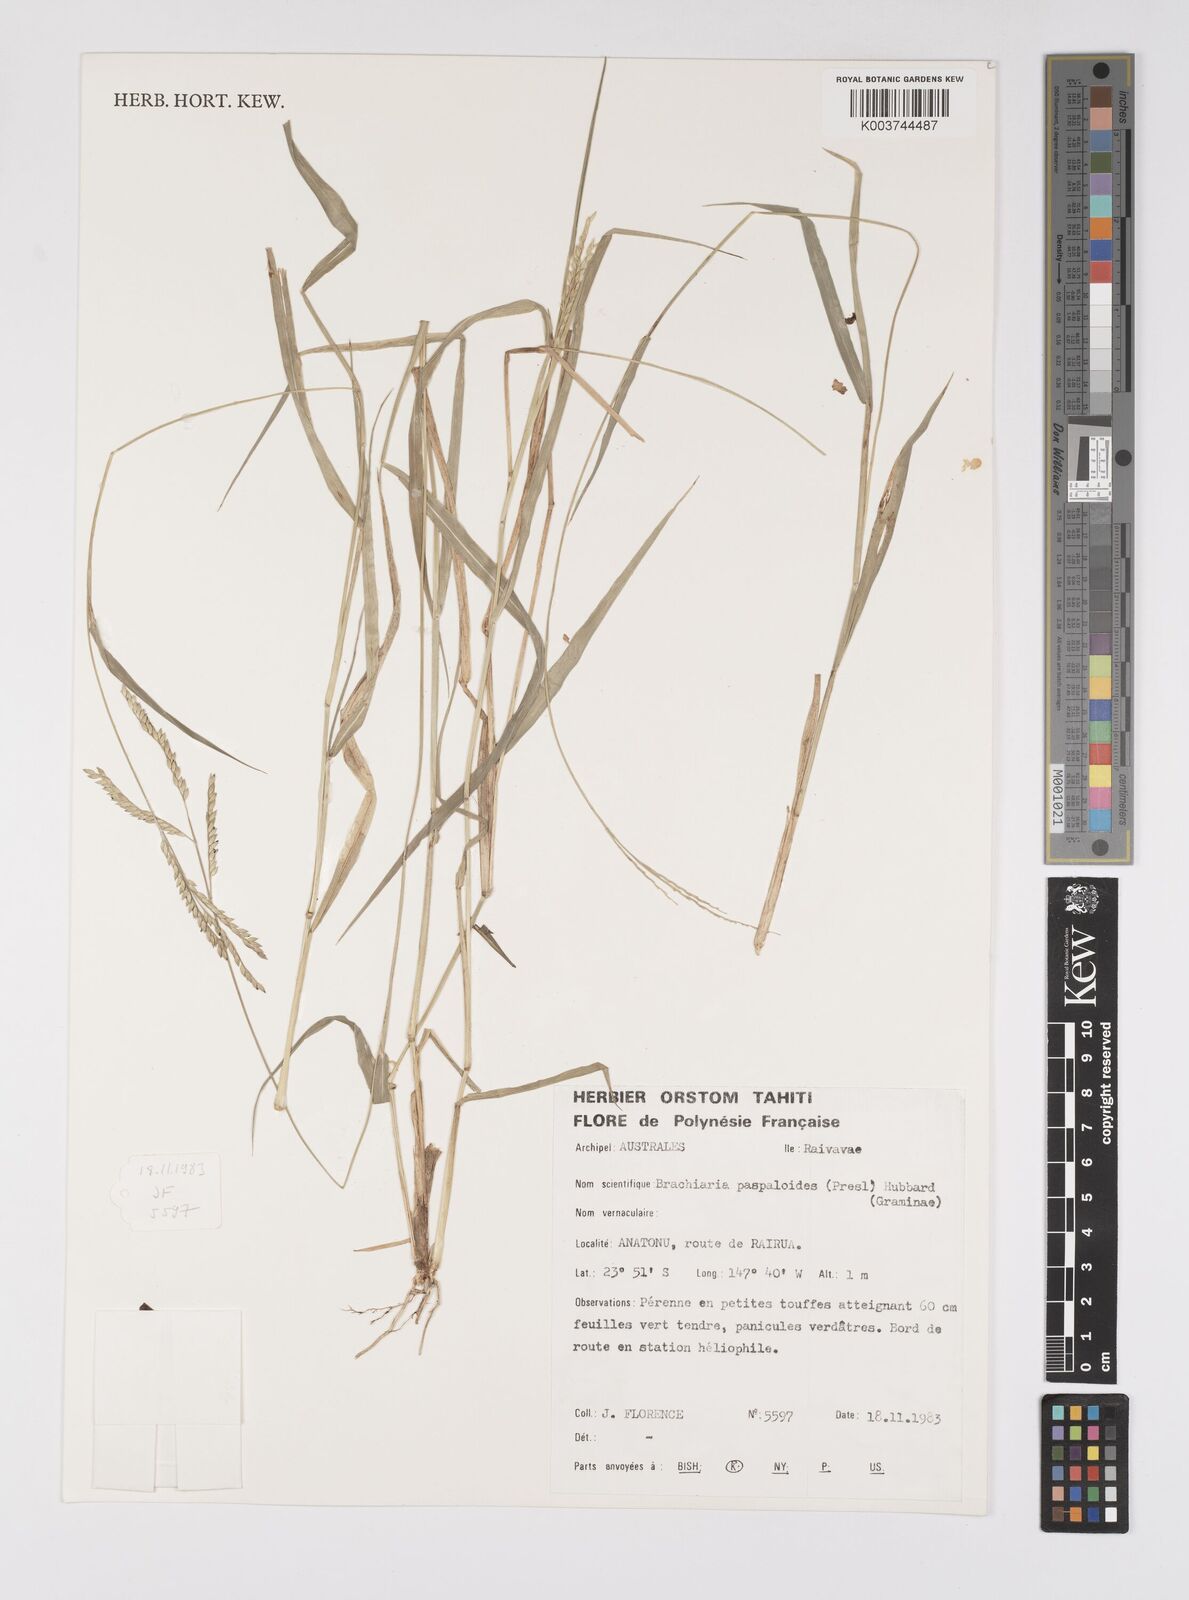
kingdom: Plantae
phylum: Tracheophyta
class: Liliopsida
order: Poales
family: Poaceae
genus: Urochloa
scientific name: Urochloa glumaris
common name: Thurston grass
